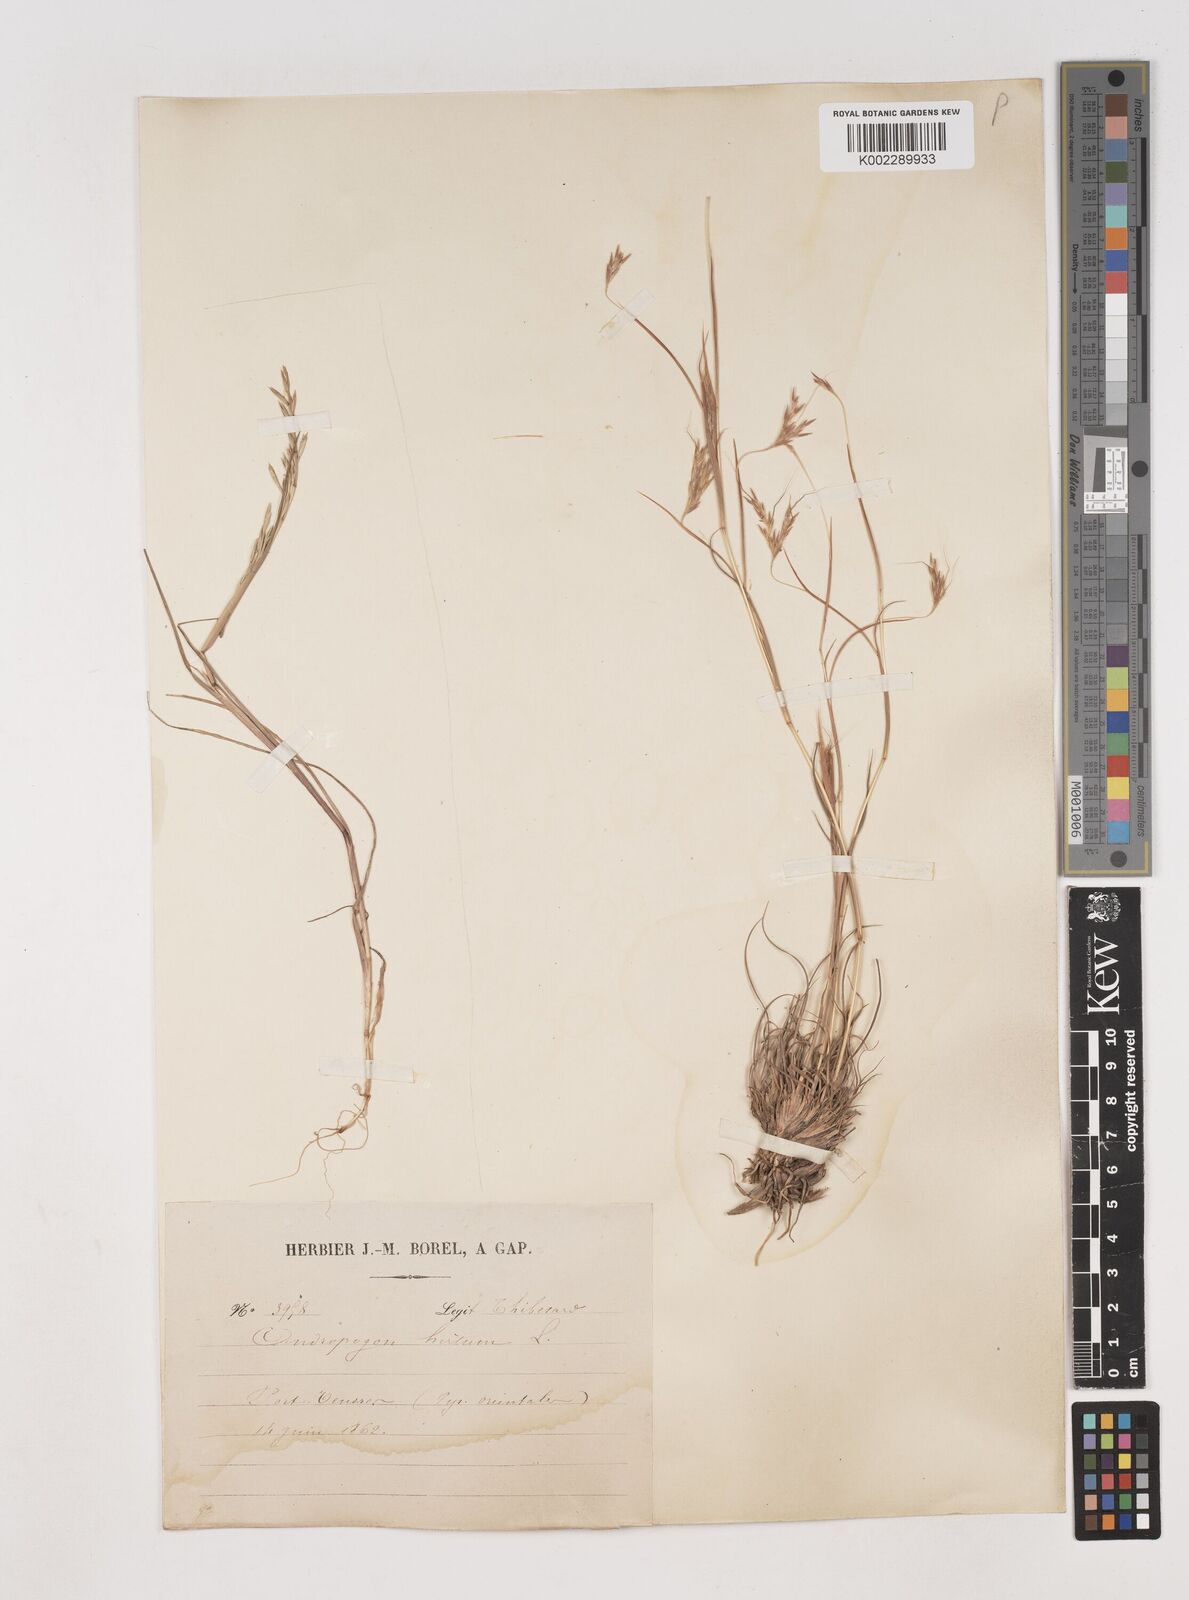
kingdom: Plantae
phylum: Tracheophyta
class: Liliopsida
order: Poales
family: Poaceae
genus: Hyparrhenia
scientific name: Hyparrhenia hirta
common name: Thatching grass
